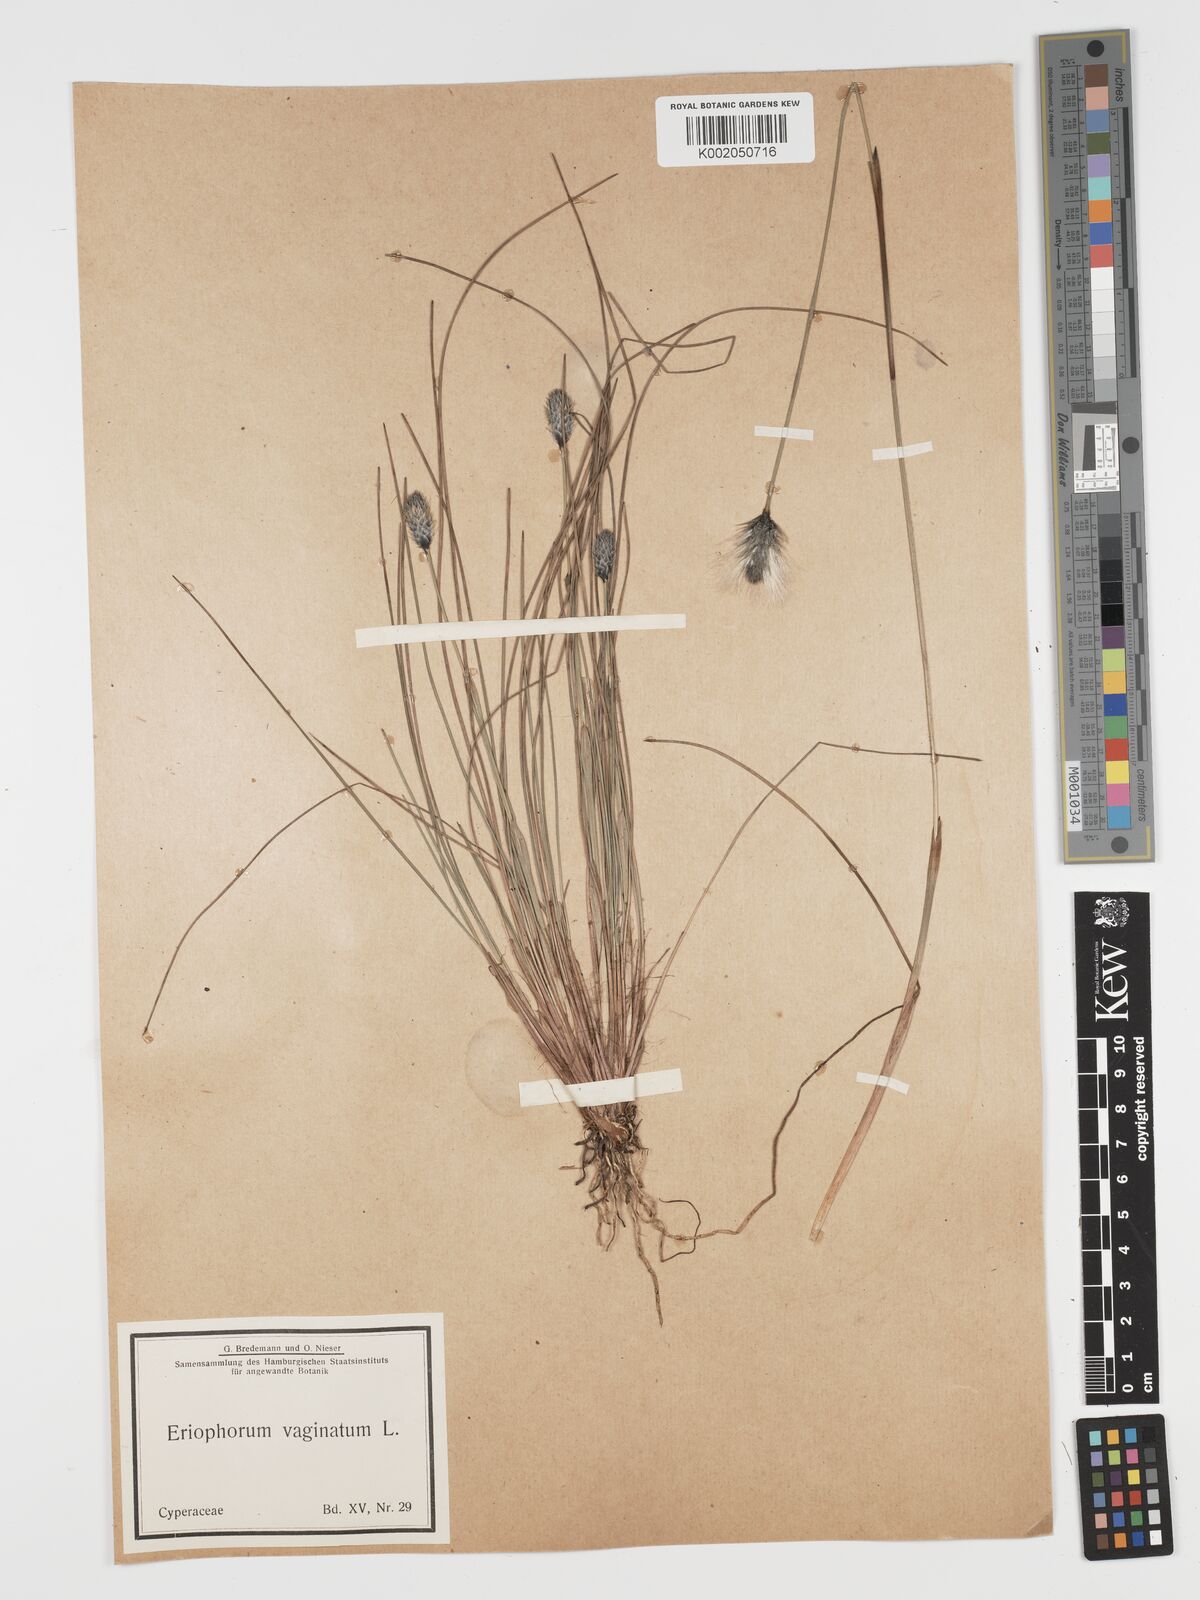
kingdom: Plantae
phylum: Tracheophyta
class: Liliopsida
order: Poales
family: Cyperaceae
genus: Eriophorum
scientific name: Eriophorum vaginatum
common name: Hare's-tail cottongrass
